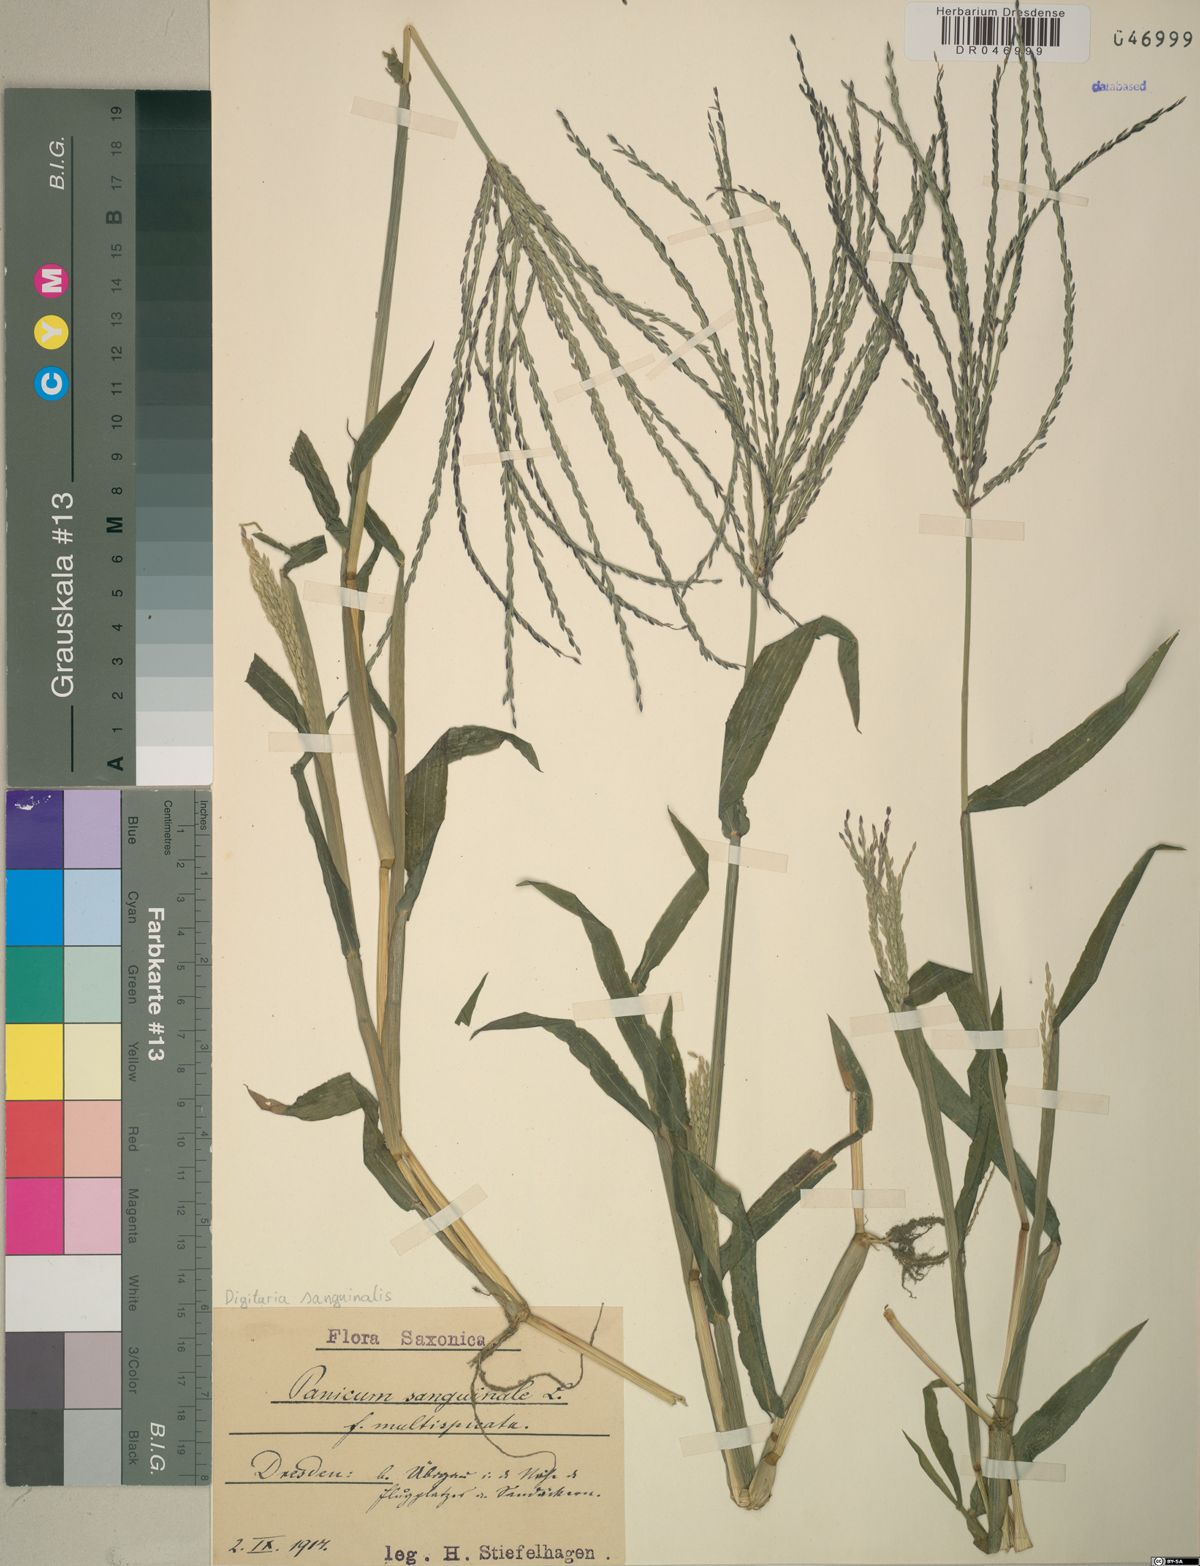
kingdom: Plantae
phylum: Tracheophyta
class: Liliopsida
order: Poales
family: Poaceae
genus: Digitaria
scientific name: Digitaria sanguinalis
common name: Hairy crabgrass
